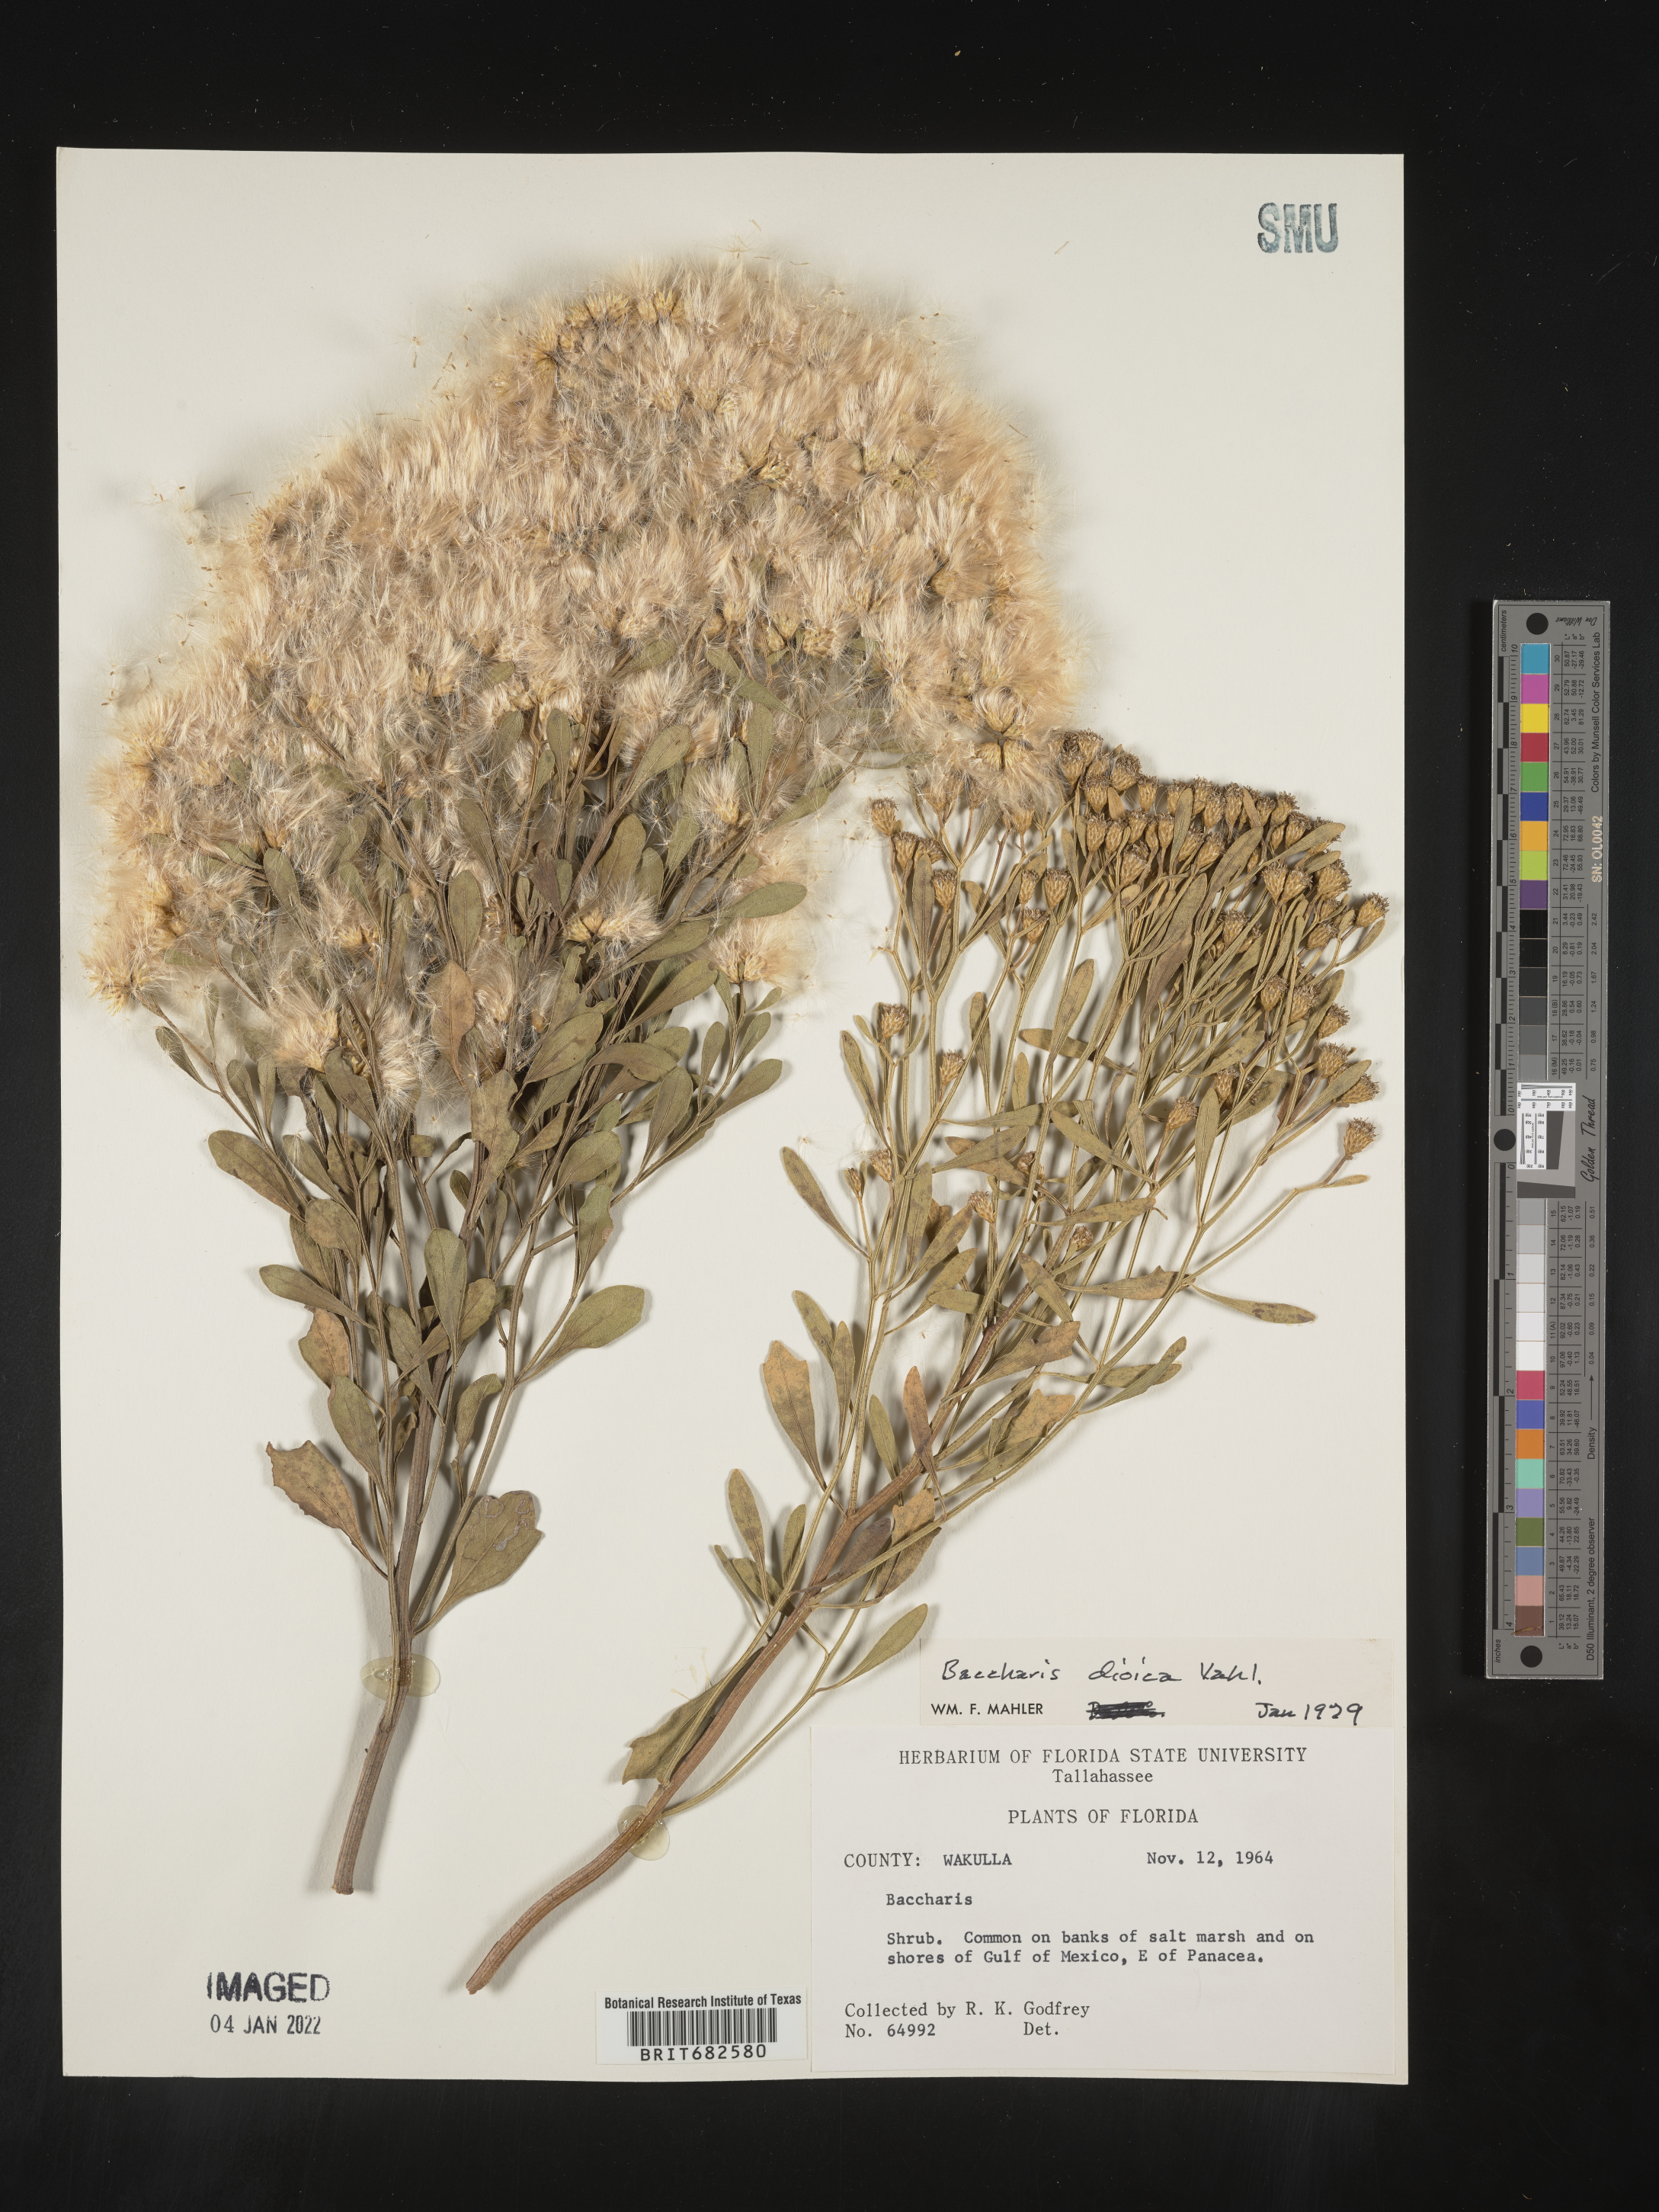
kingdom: Plantae
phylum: Tracheophyta
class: Magnoliopsida
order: Asterales
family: Asteraceae
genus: Baccharis
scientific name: Baccharis dioica
